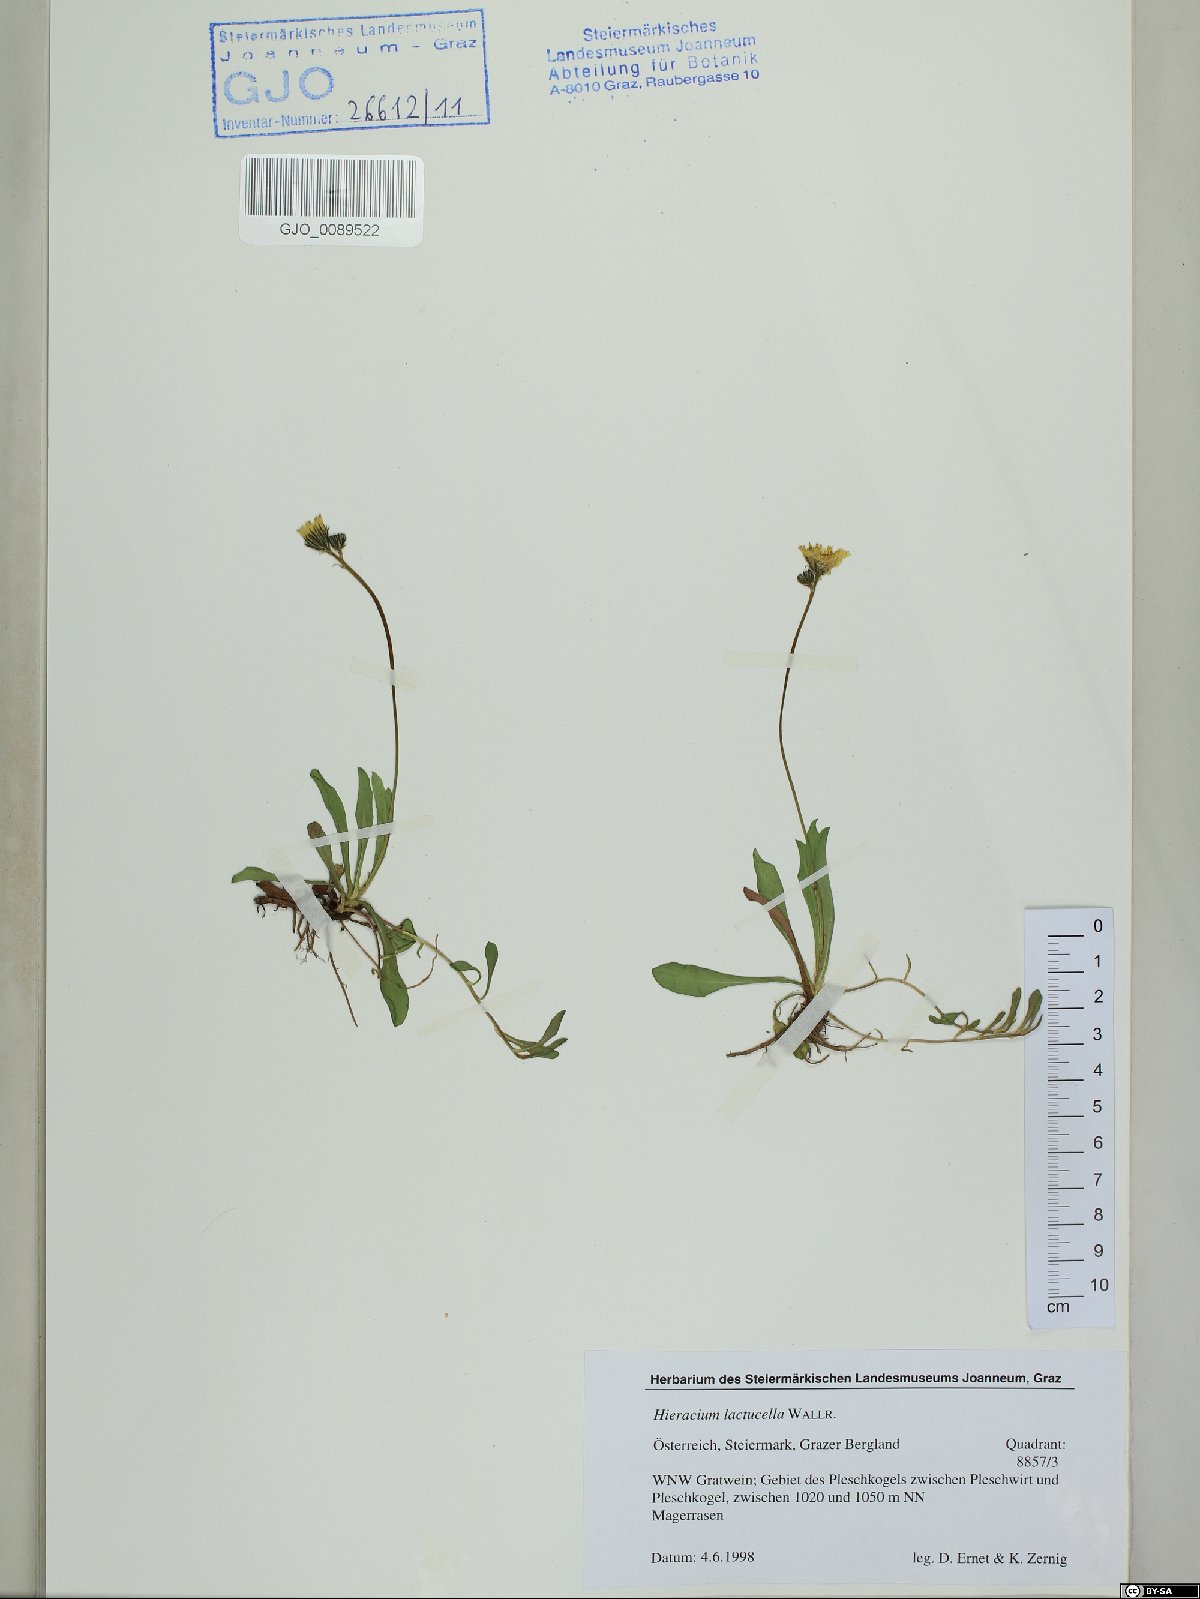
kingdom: Plantae
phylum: Tracheophyta
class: Magnoliopsida
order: Asterales
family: Asteraceae
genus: Pilosella
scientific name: Pilosella lactucella
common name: Glaucous fox-and-cubs
